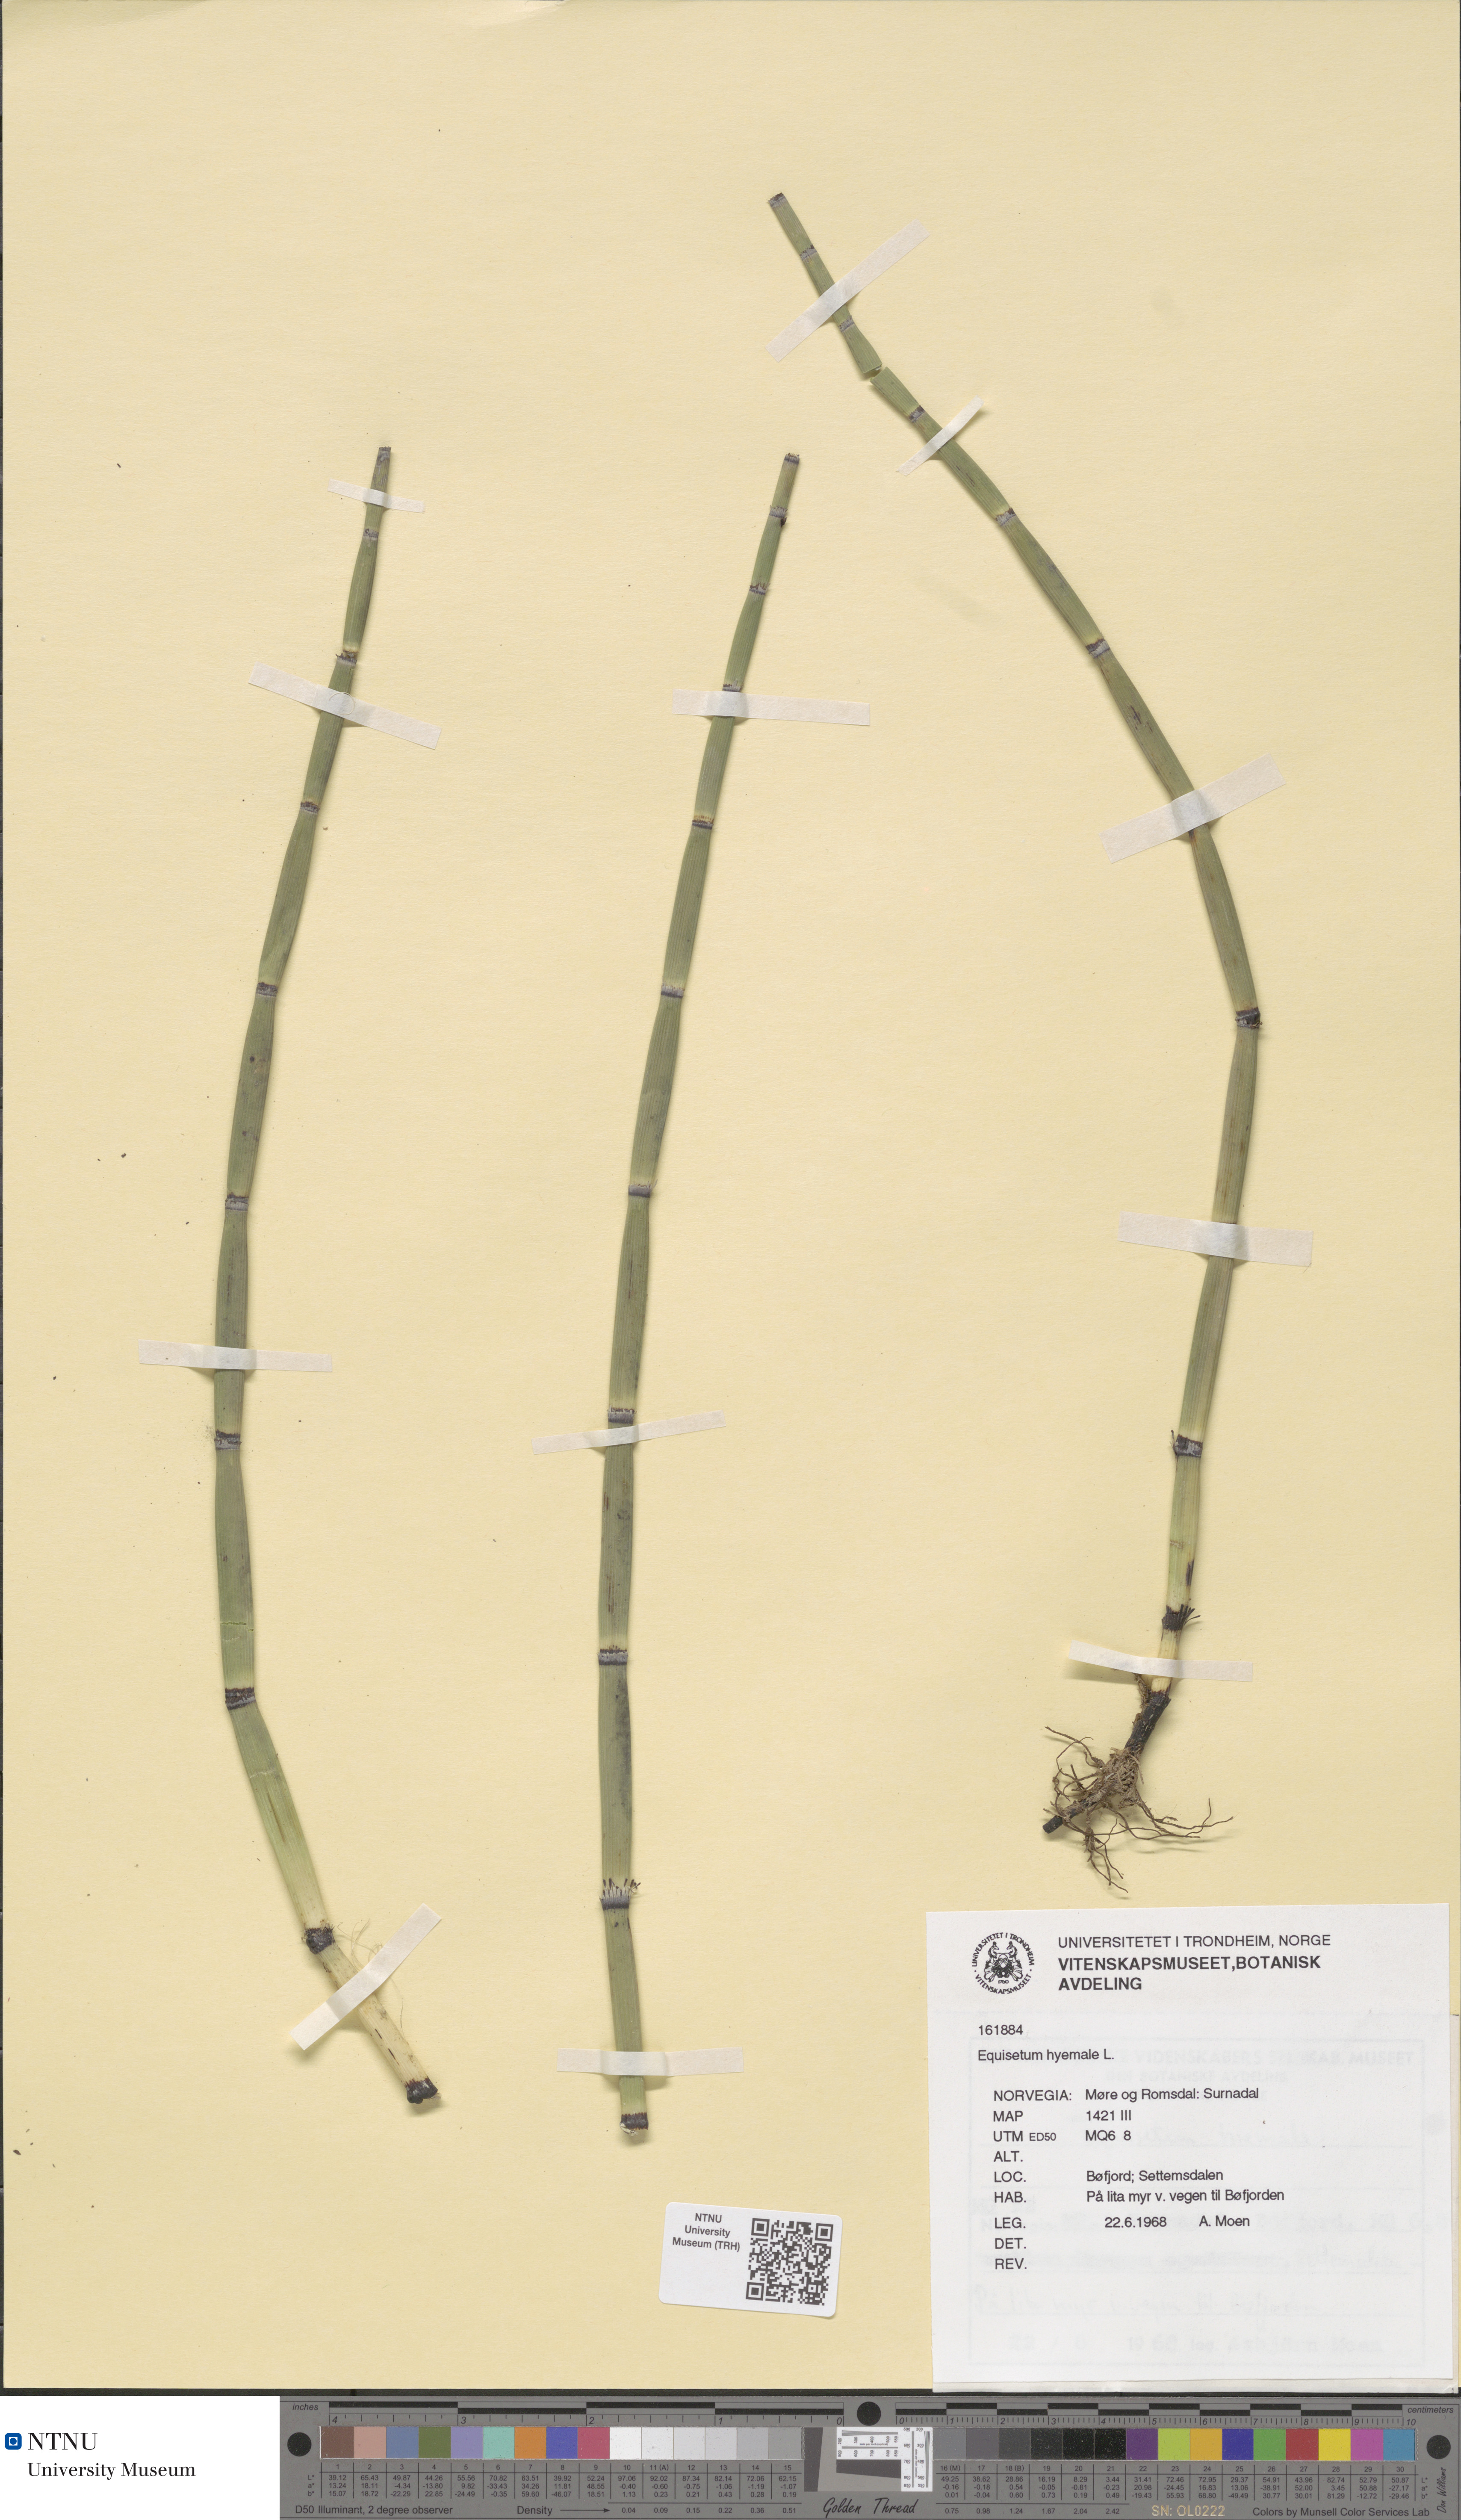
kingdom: Plantae
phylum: Tracheophyta
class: Polypodiopsida
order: Equisetales
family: Equisetaceae
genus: Equisetum
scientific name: Equisetum hyemale
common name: Rough horsetail
